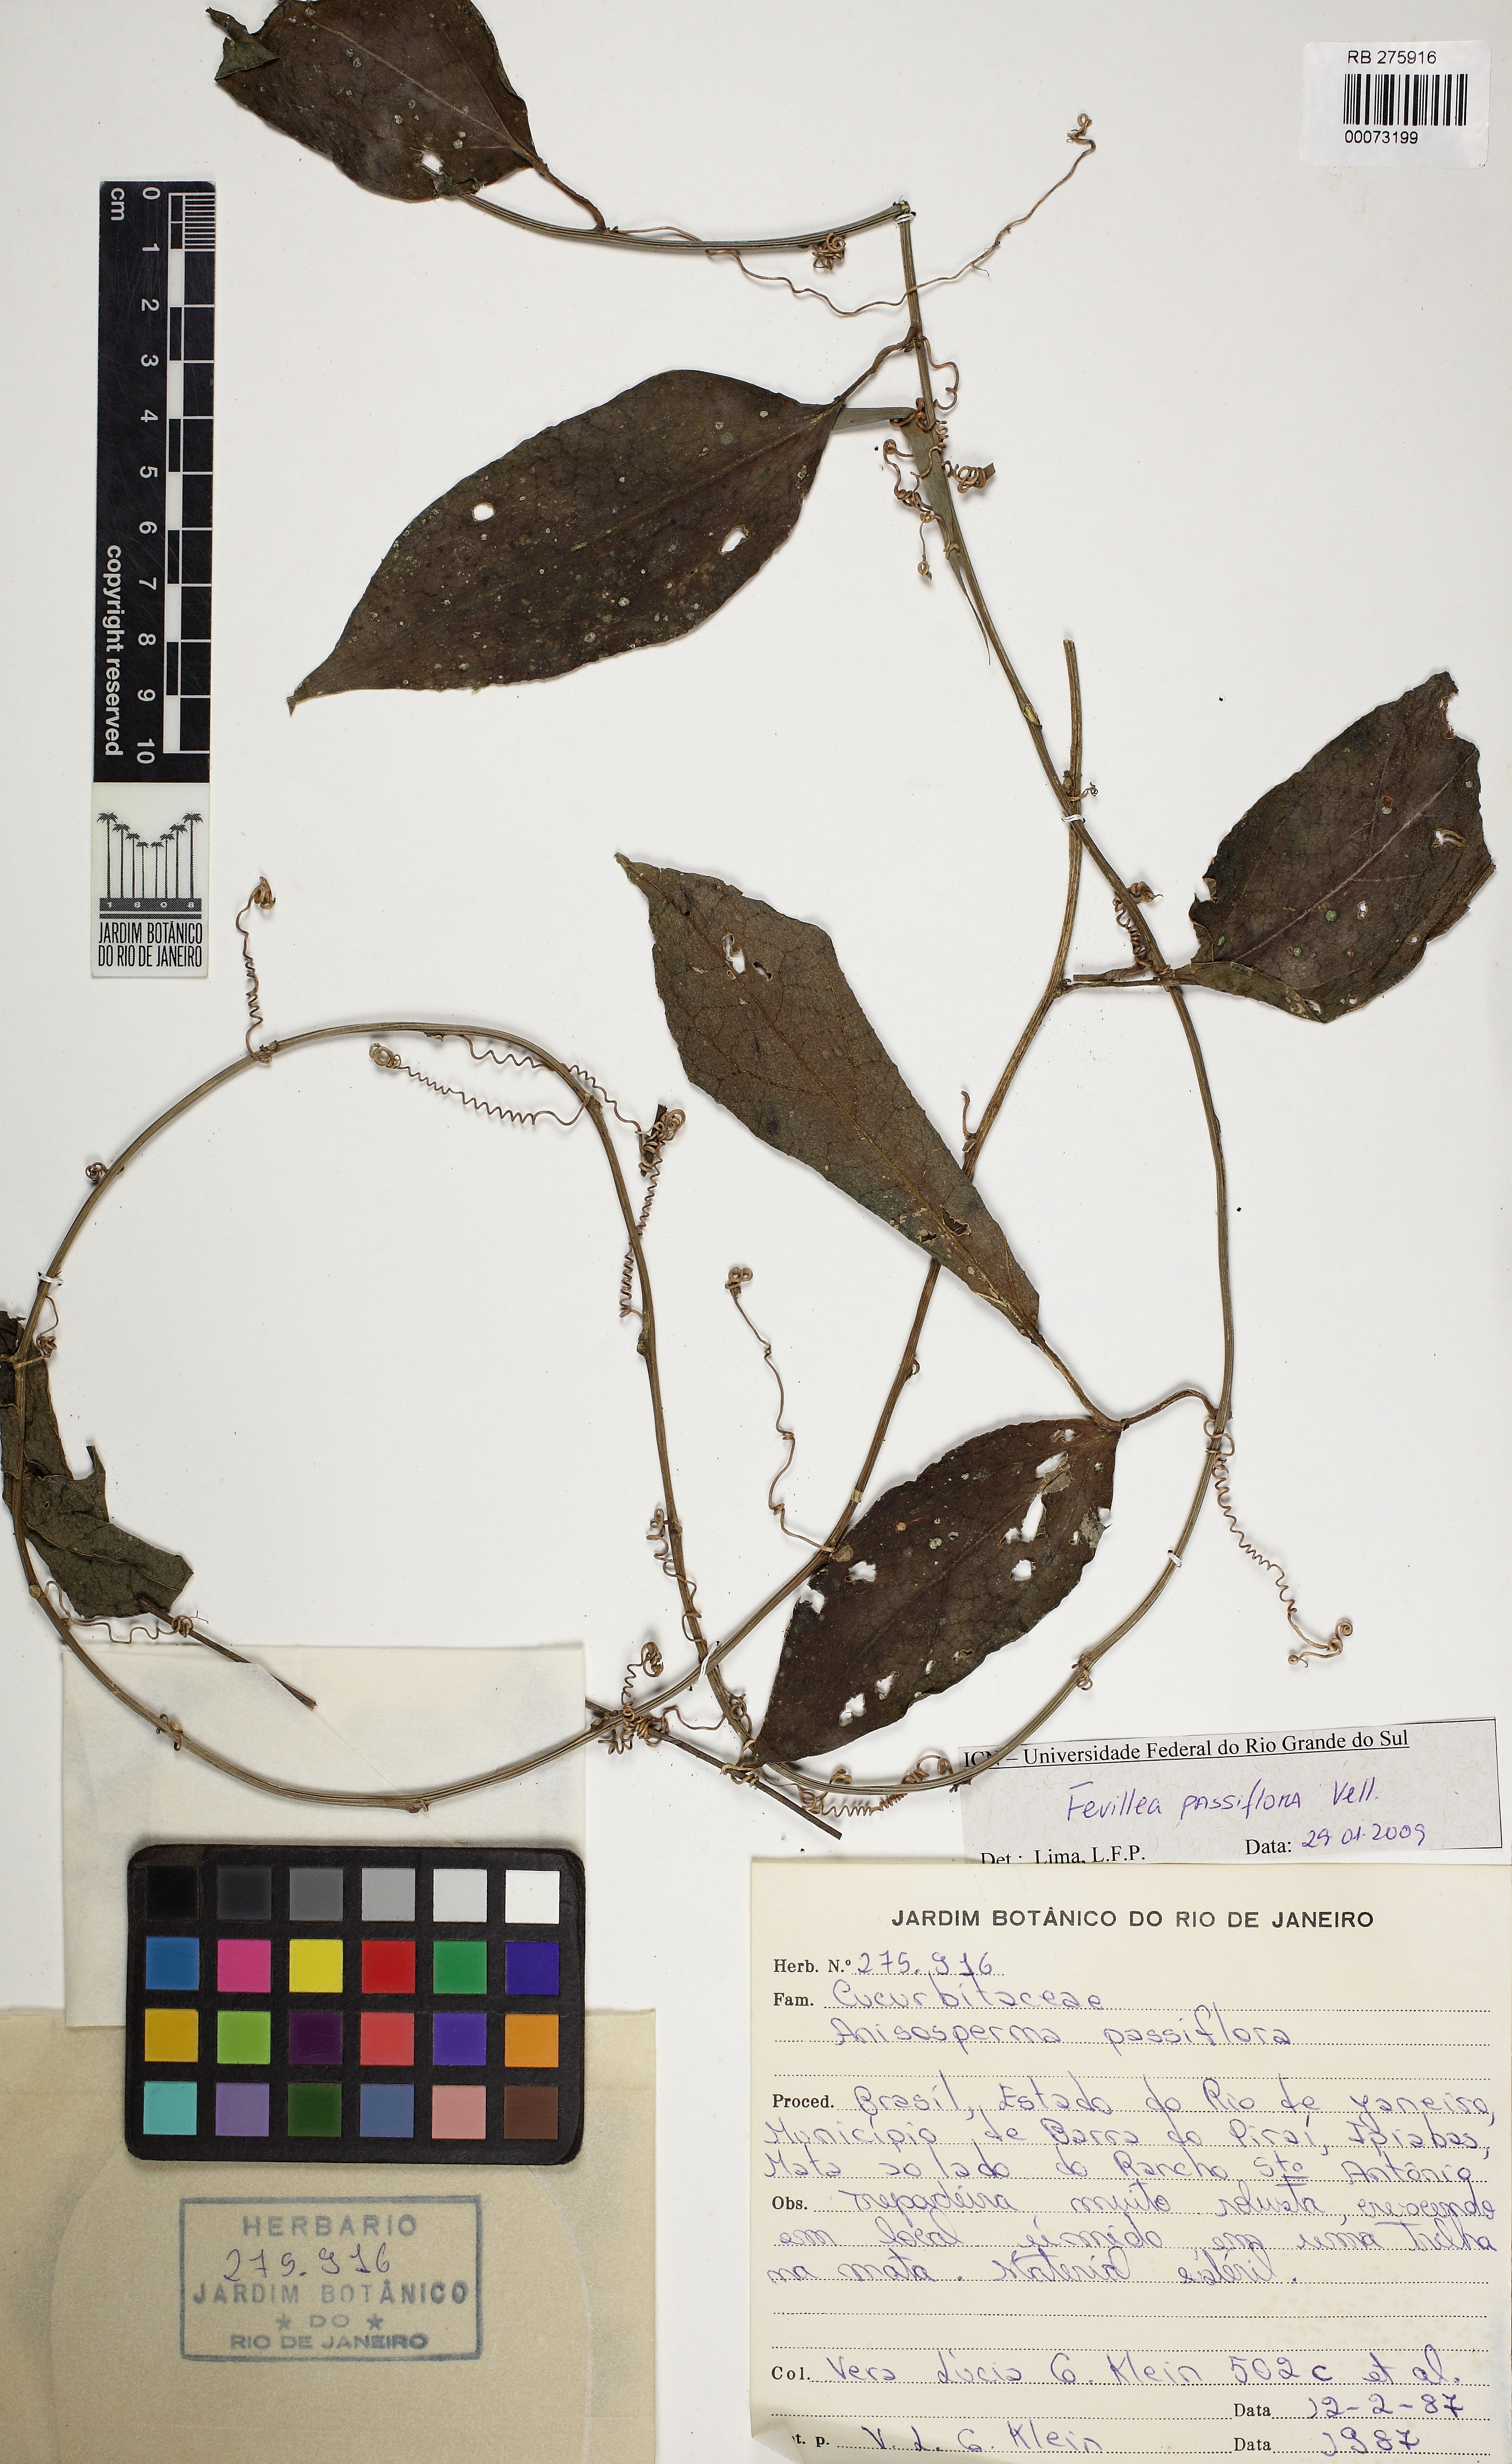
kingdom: Plantae
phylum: Tracheophyta
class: Magnoliopsida
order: Cucurbitales
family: Cucurbitaceae
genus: Anisosperma
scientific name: Anisosperma passiflora
